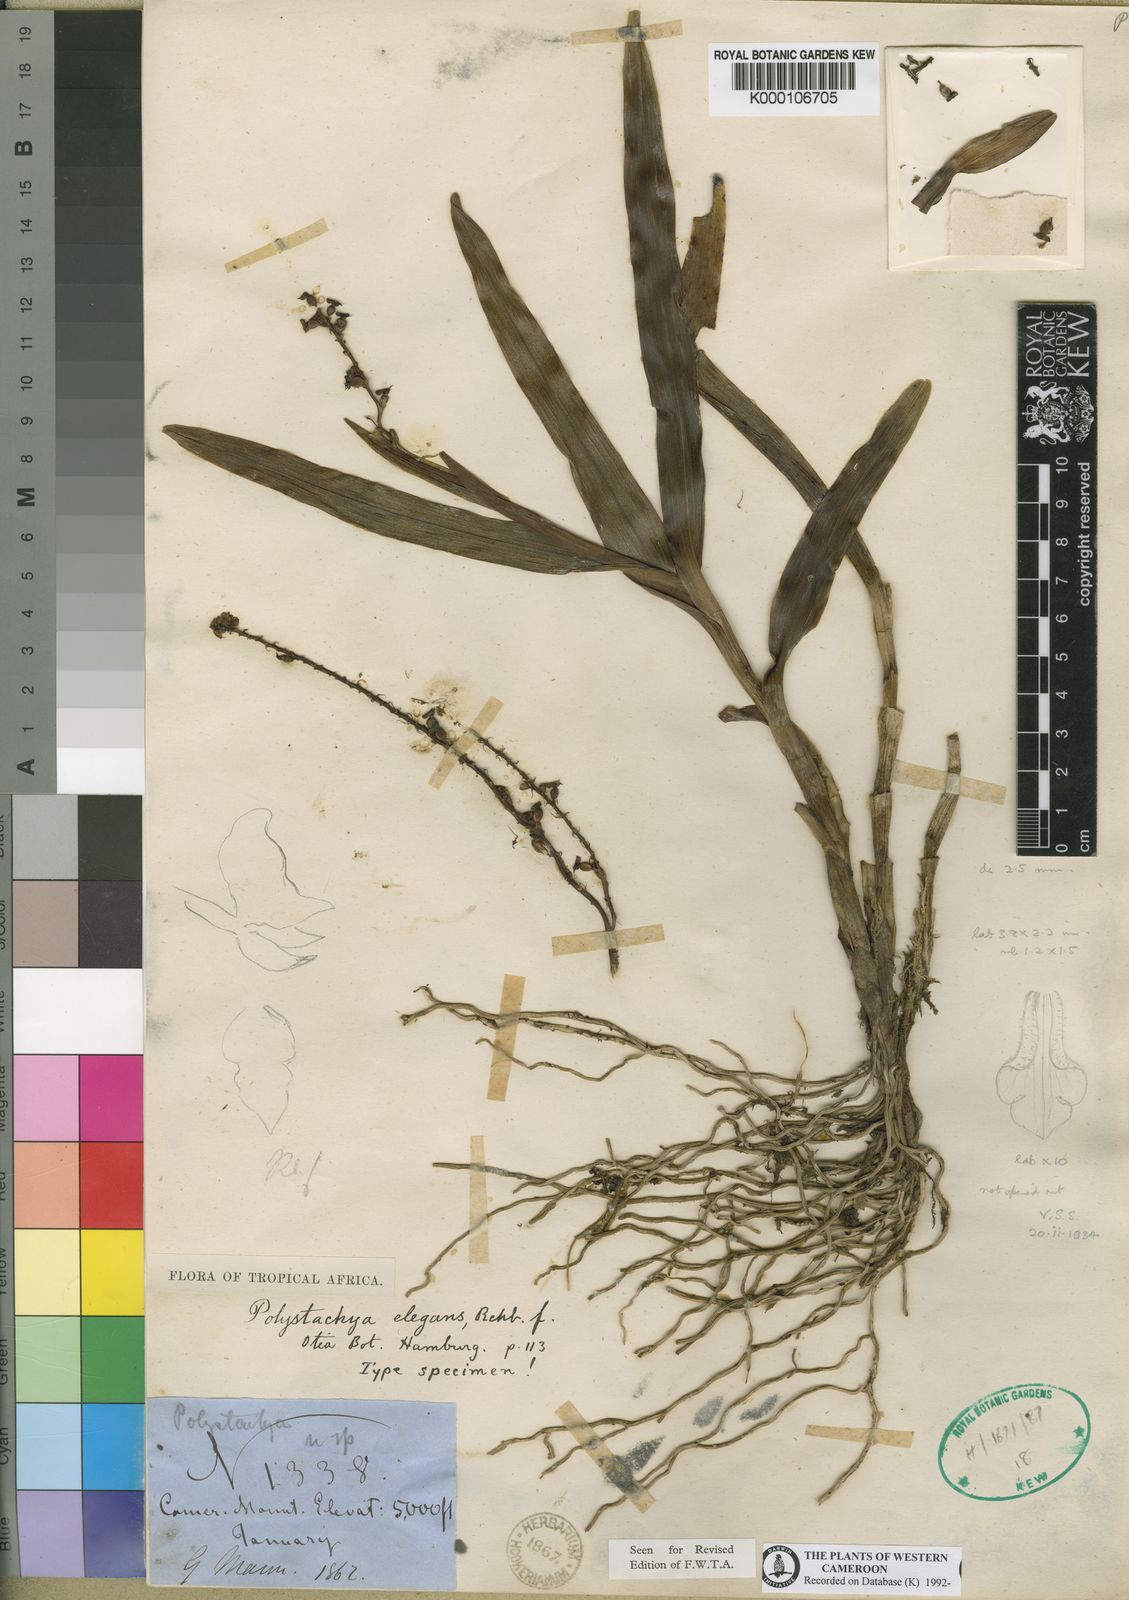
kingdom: Plantae
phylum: Tracheophyta
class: Liliopsida
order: Asparagales
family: Orchidaceae
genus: Polystachya
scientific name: Polystachya elegans
